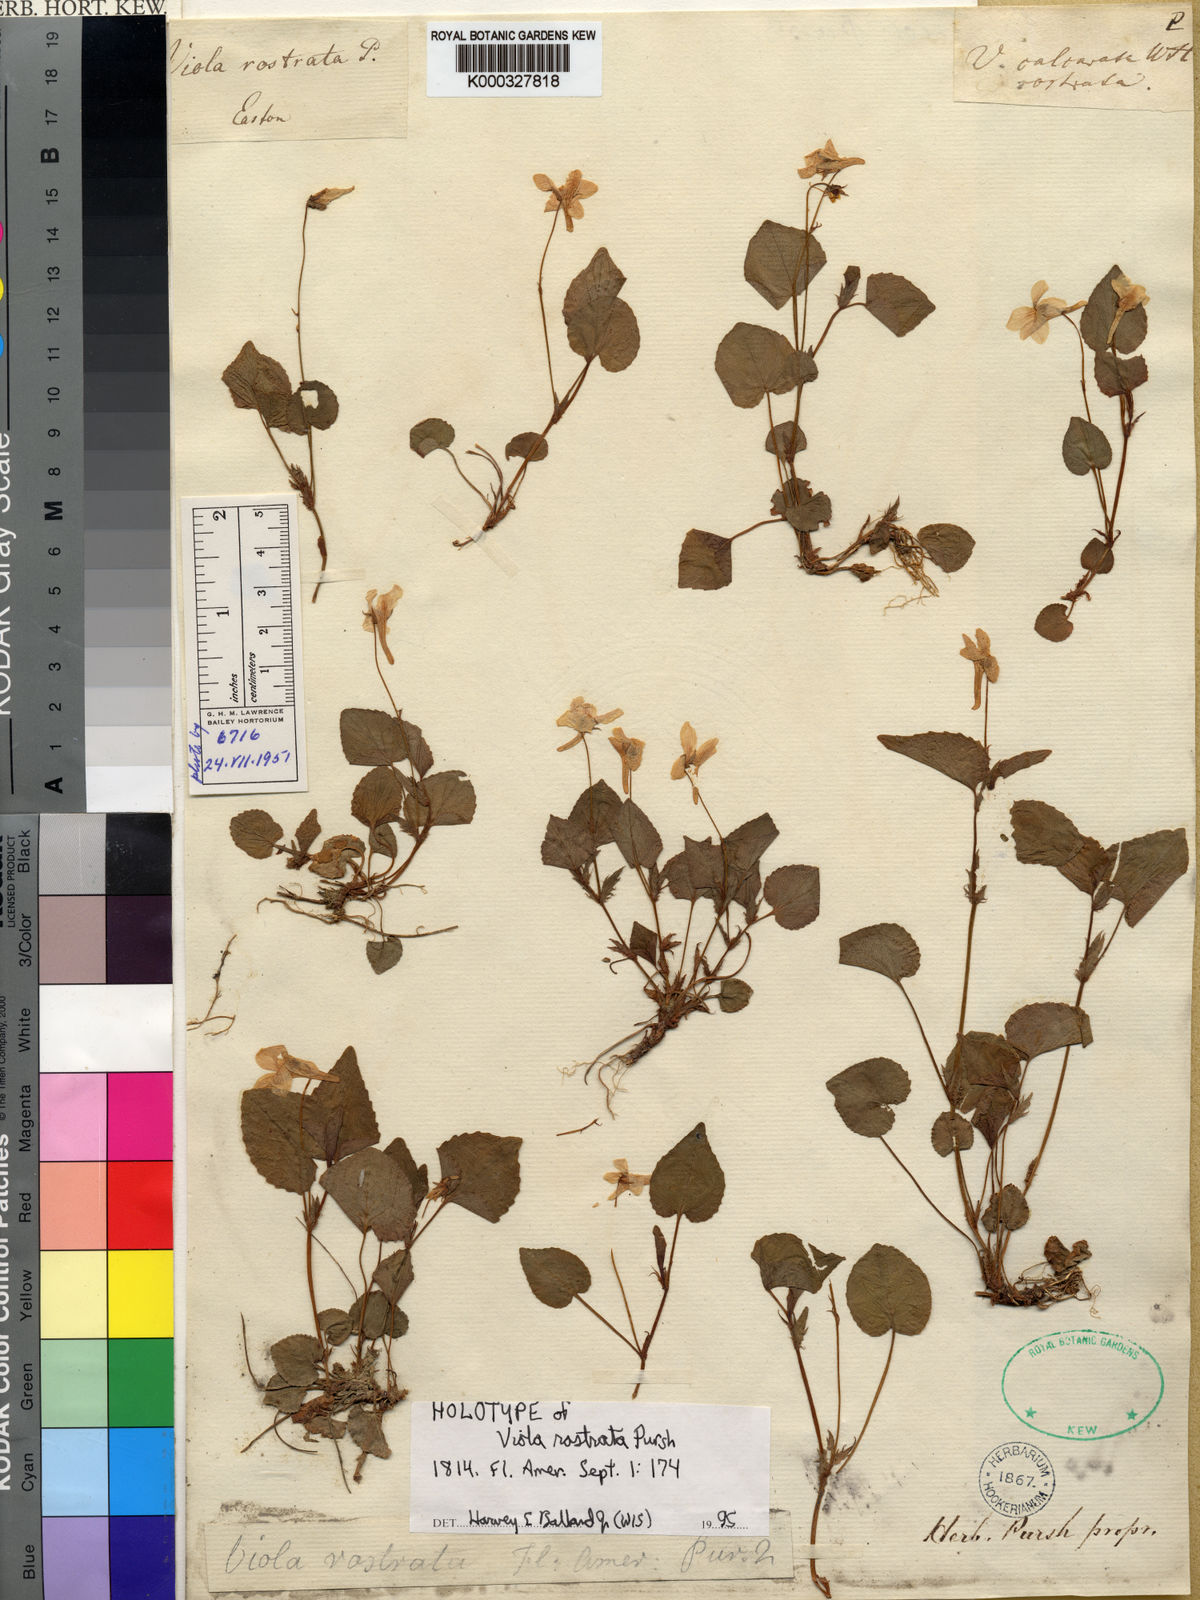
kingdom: Plantae
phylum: Tracheophyta
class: Magnoliopsida
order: Malpighiales
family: Violaceae
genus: Viola
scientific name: Viola rostrata
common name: Long-spur violet
